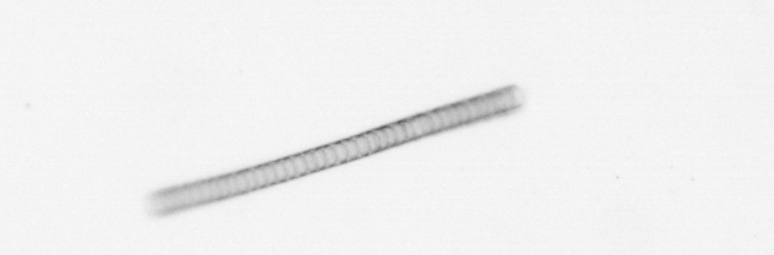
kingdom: Chromista
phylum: Ochrophyta
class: Bacillariophyceae
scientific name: Bacillariophyceae
